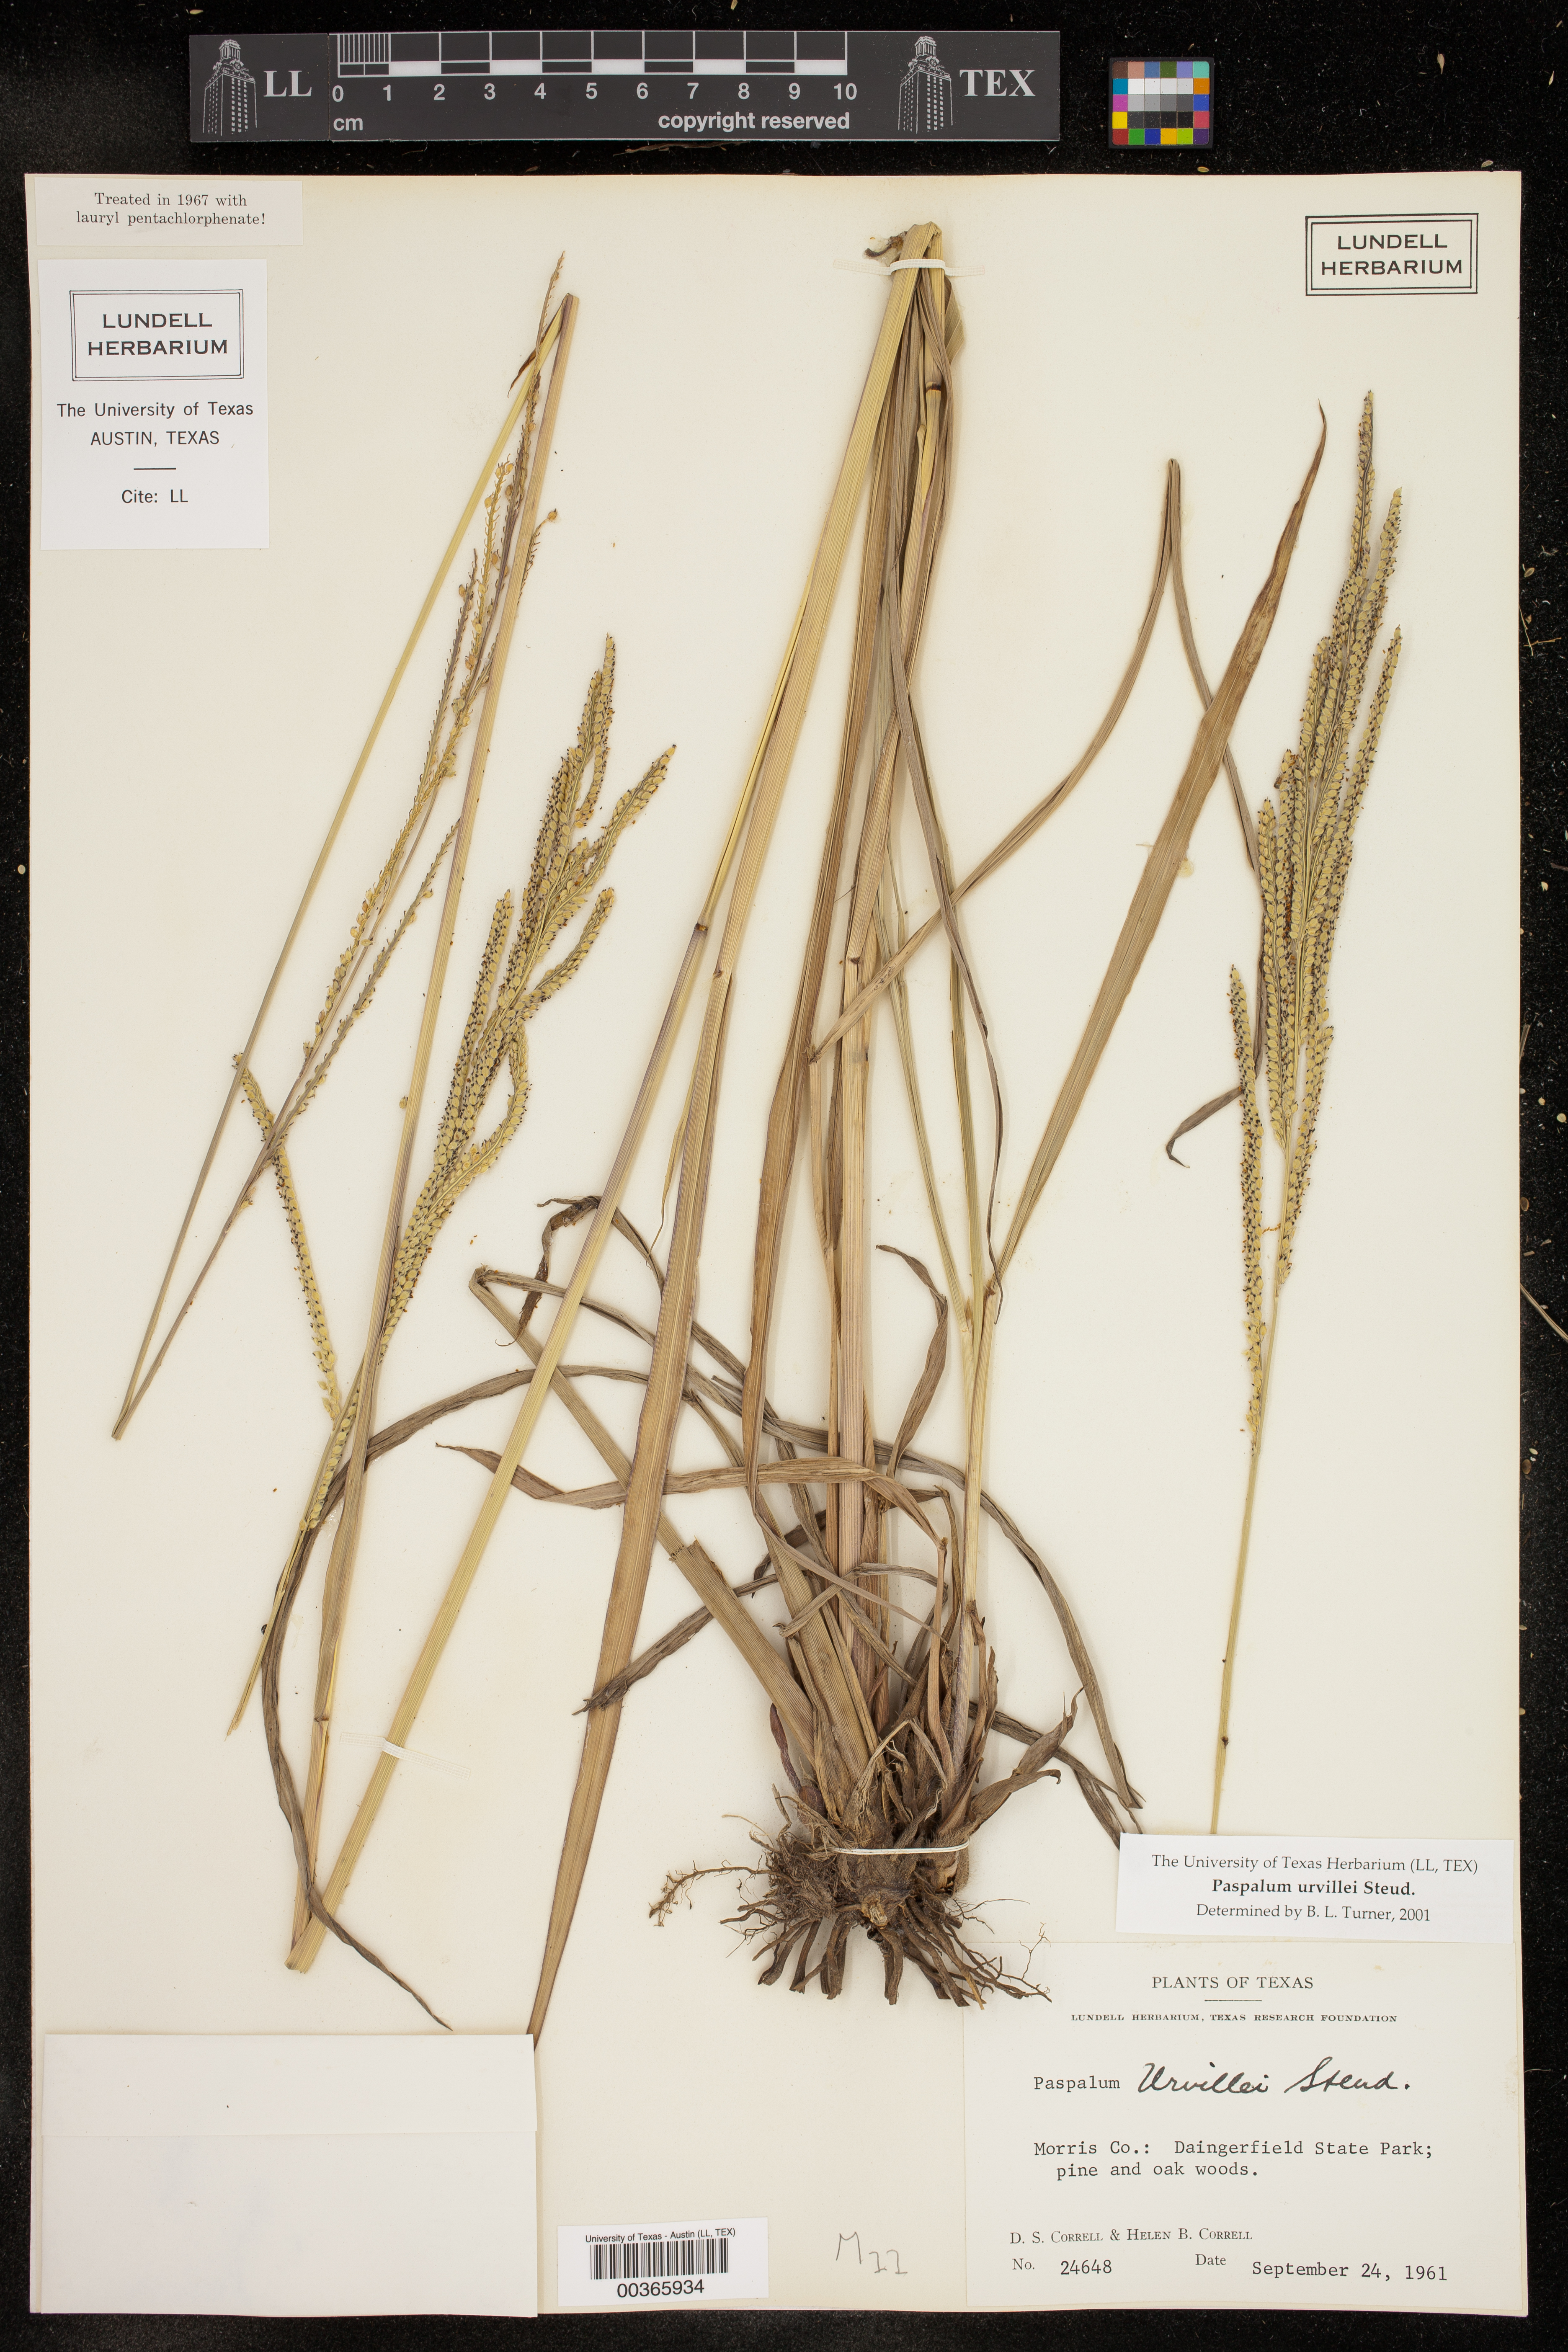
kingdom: Plantae
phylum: Tracheophyta
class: Liliopsida
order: Poales
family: Poaceae
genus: Paspalum
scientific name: Paspalum urvillei
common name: Vasey's grass
